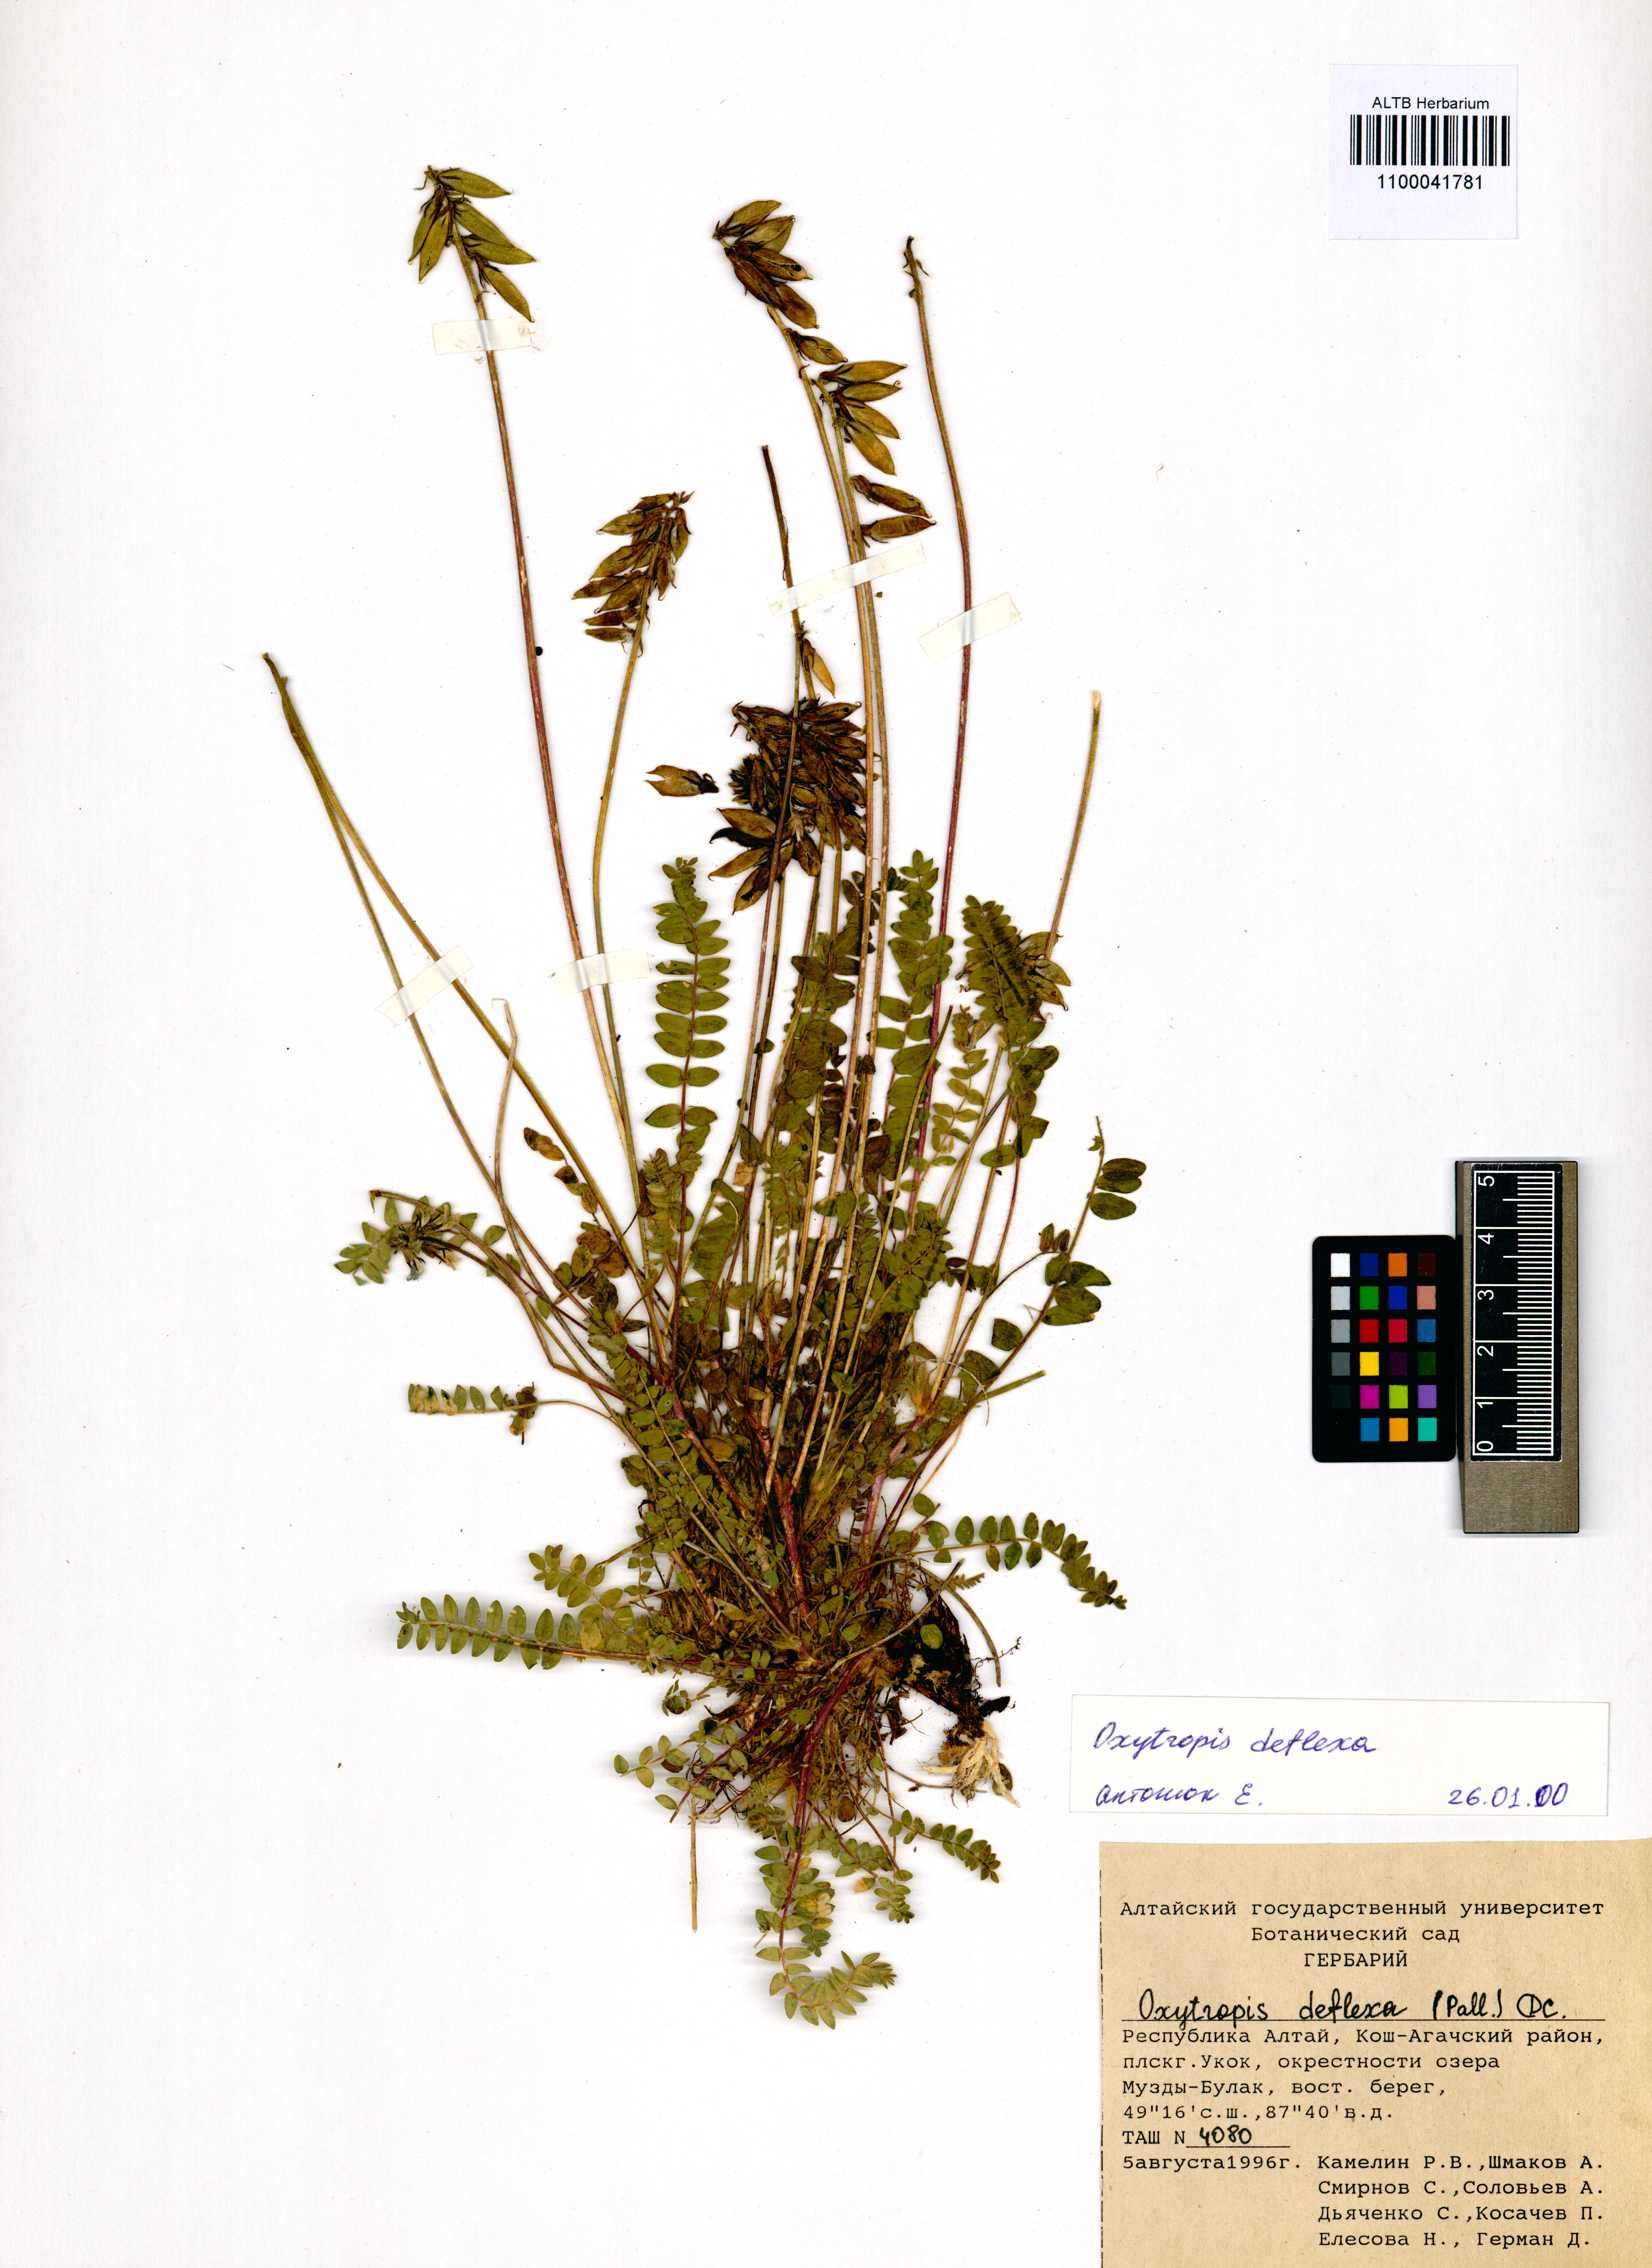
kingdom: Plantae
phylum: Tracheophyta
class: Magnoliopsida
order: Fabales
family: Fabaceae
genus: Oxytropis
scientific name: Oxytropis deflexa
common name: Stemmed oxytrope
